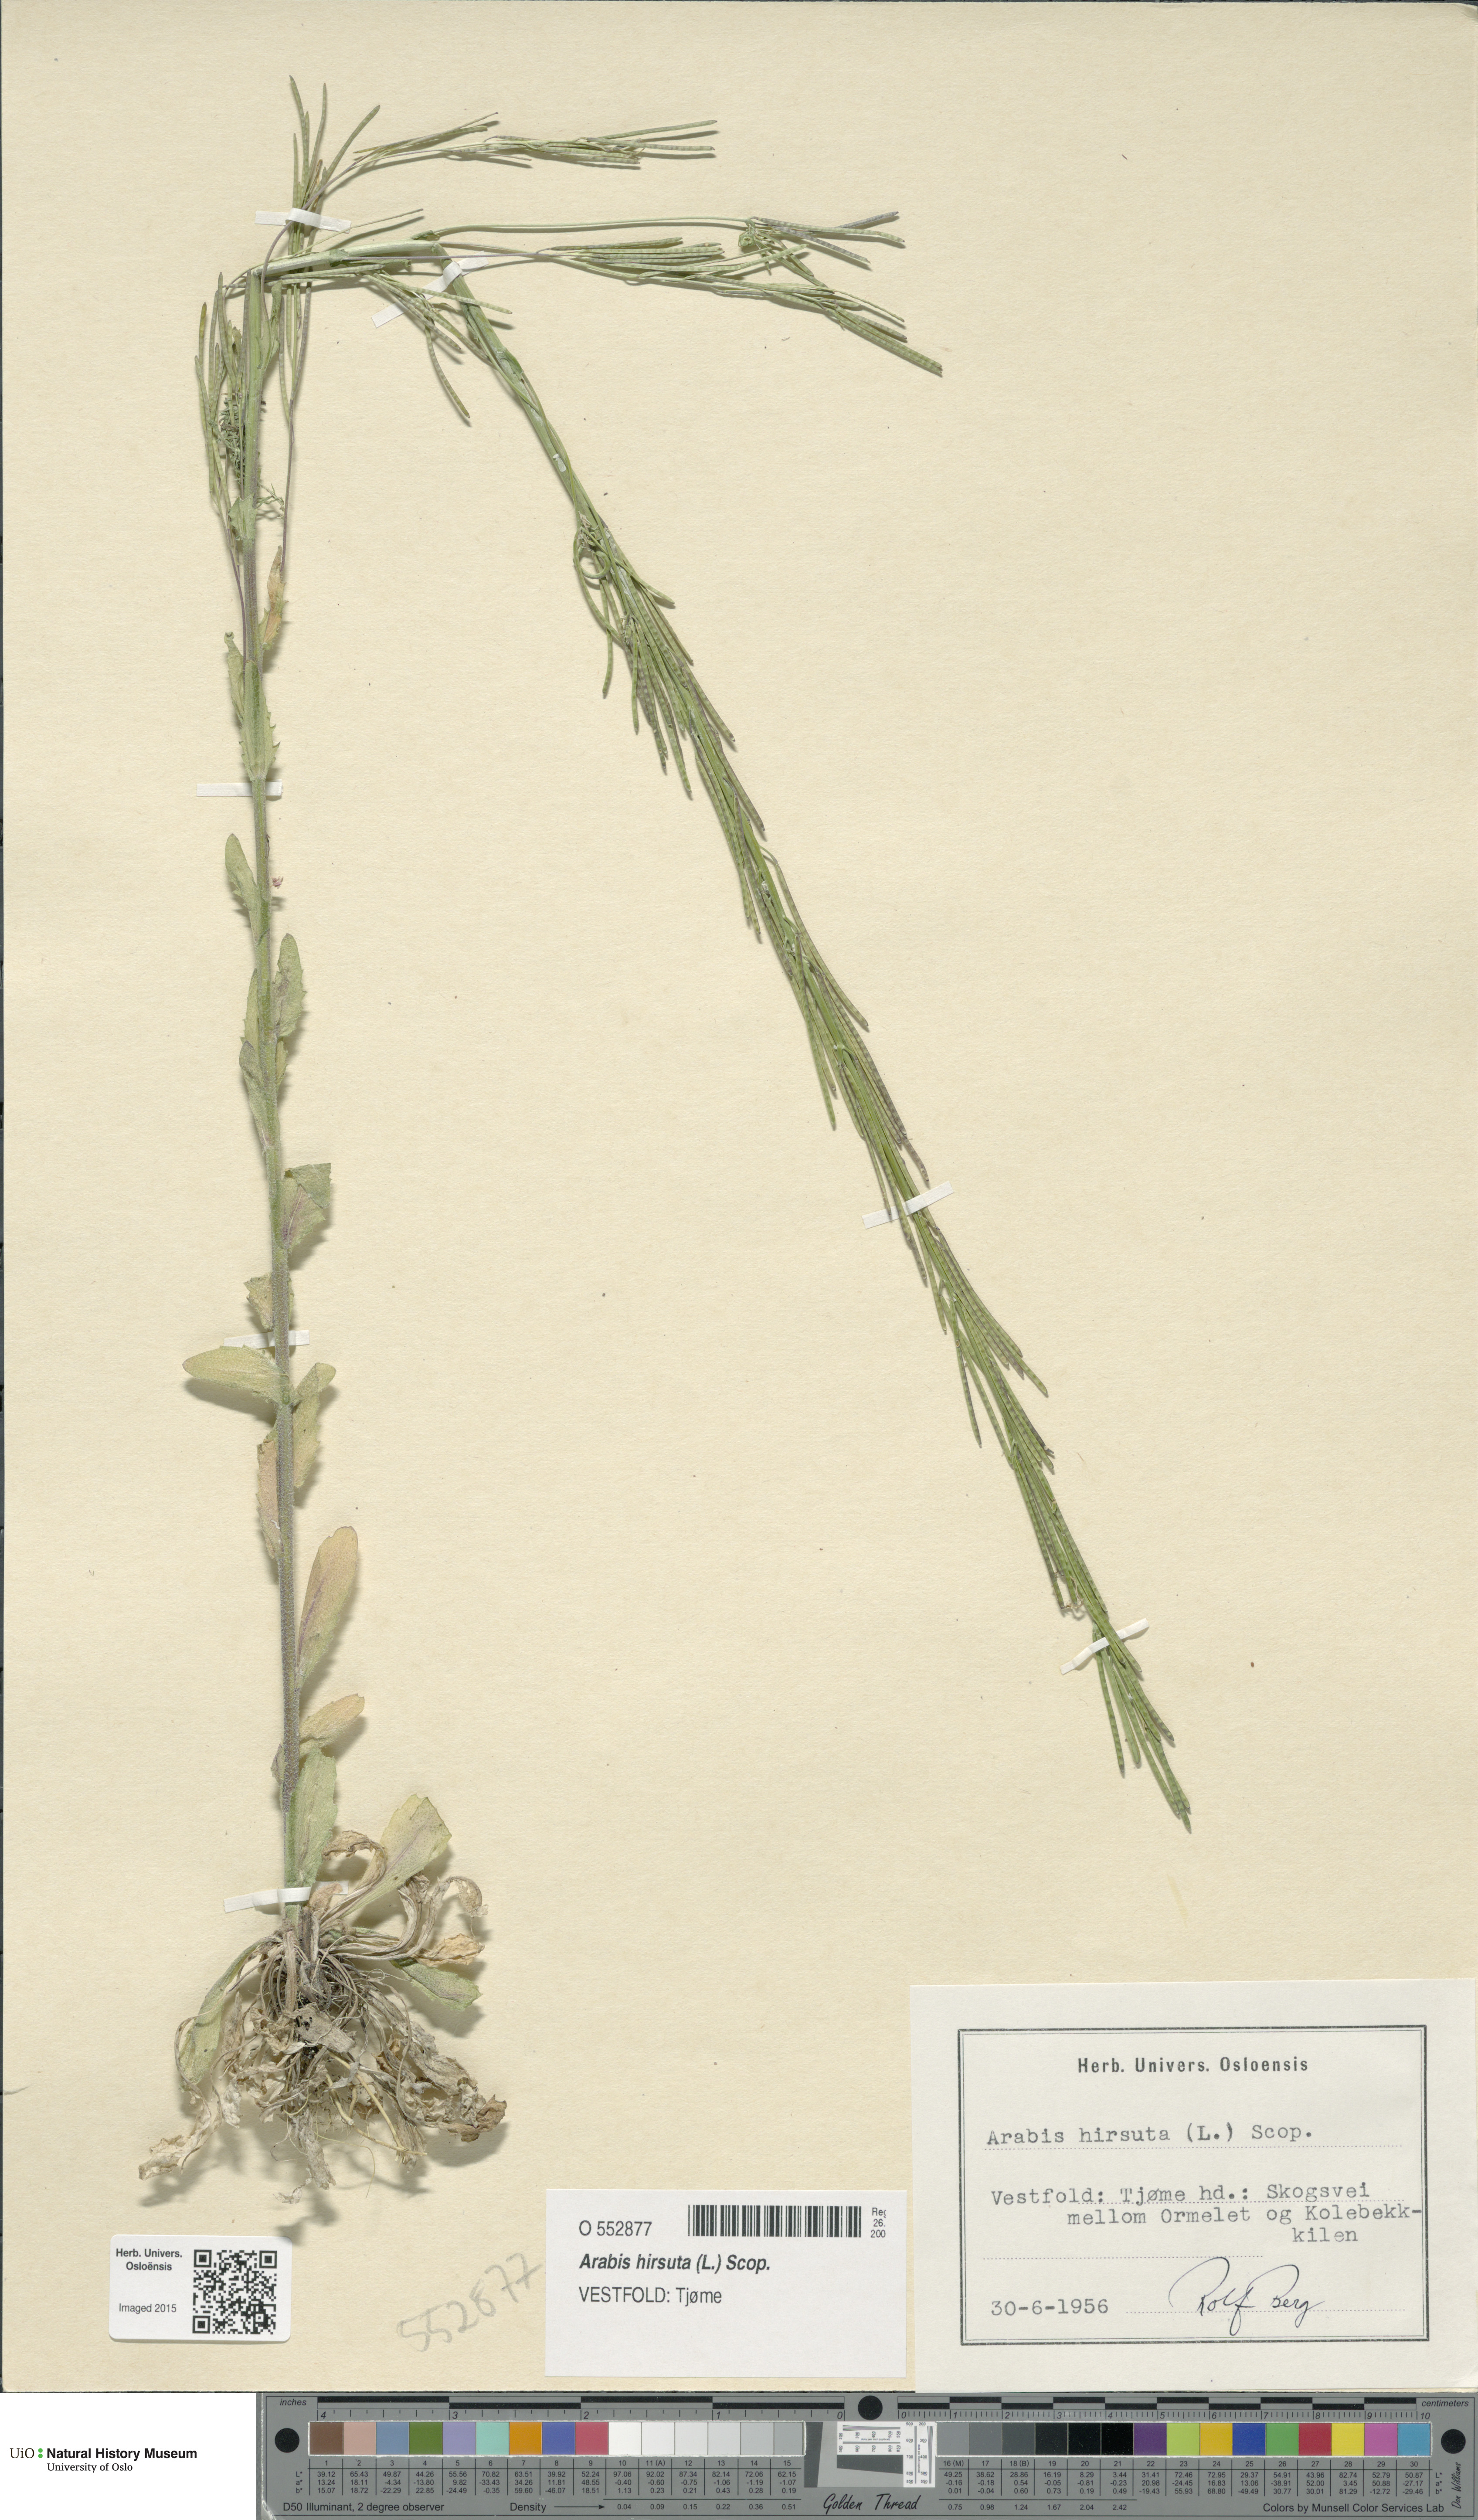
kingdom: Plantae
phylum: Tracheophyta
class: Magnoliopsida
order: Brassicales
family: Brassicaceae
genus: Arabis
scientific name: Arabis hirsuta
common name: Hairy rock-cress
